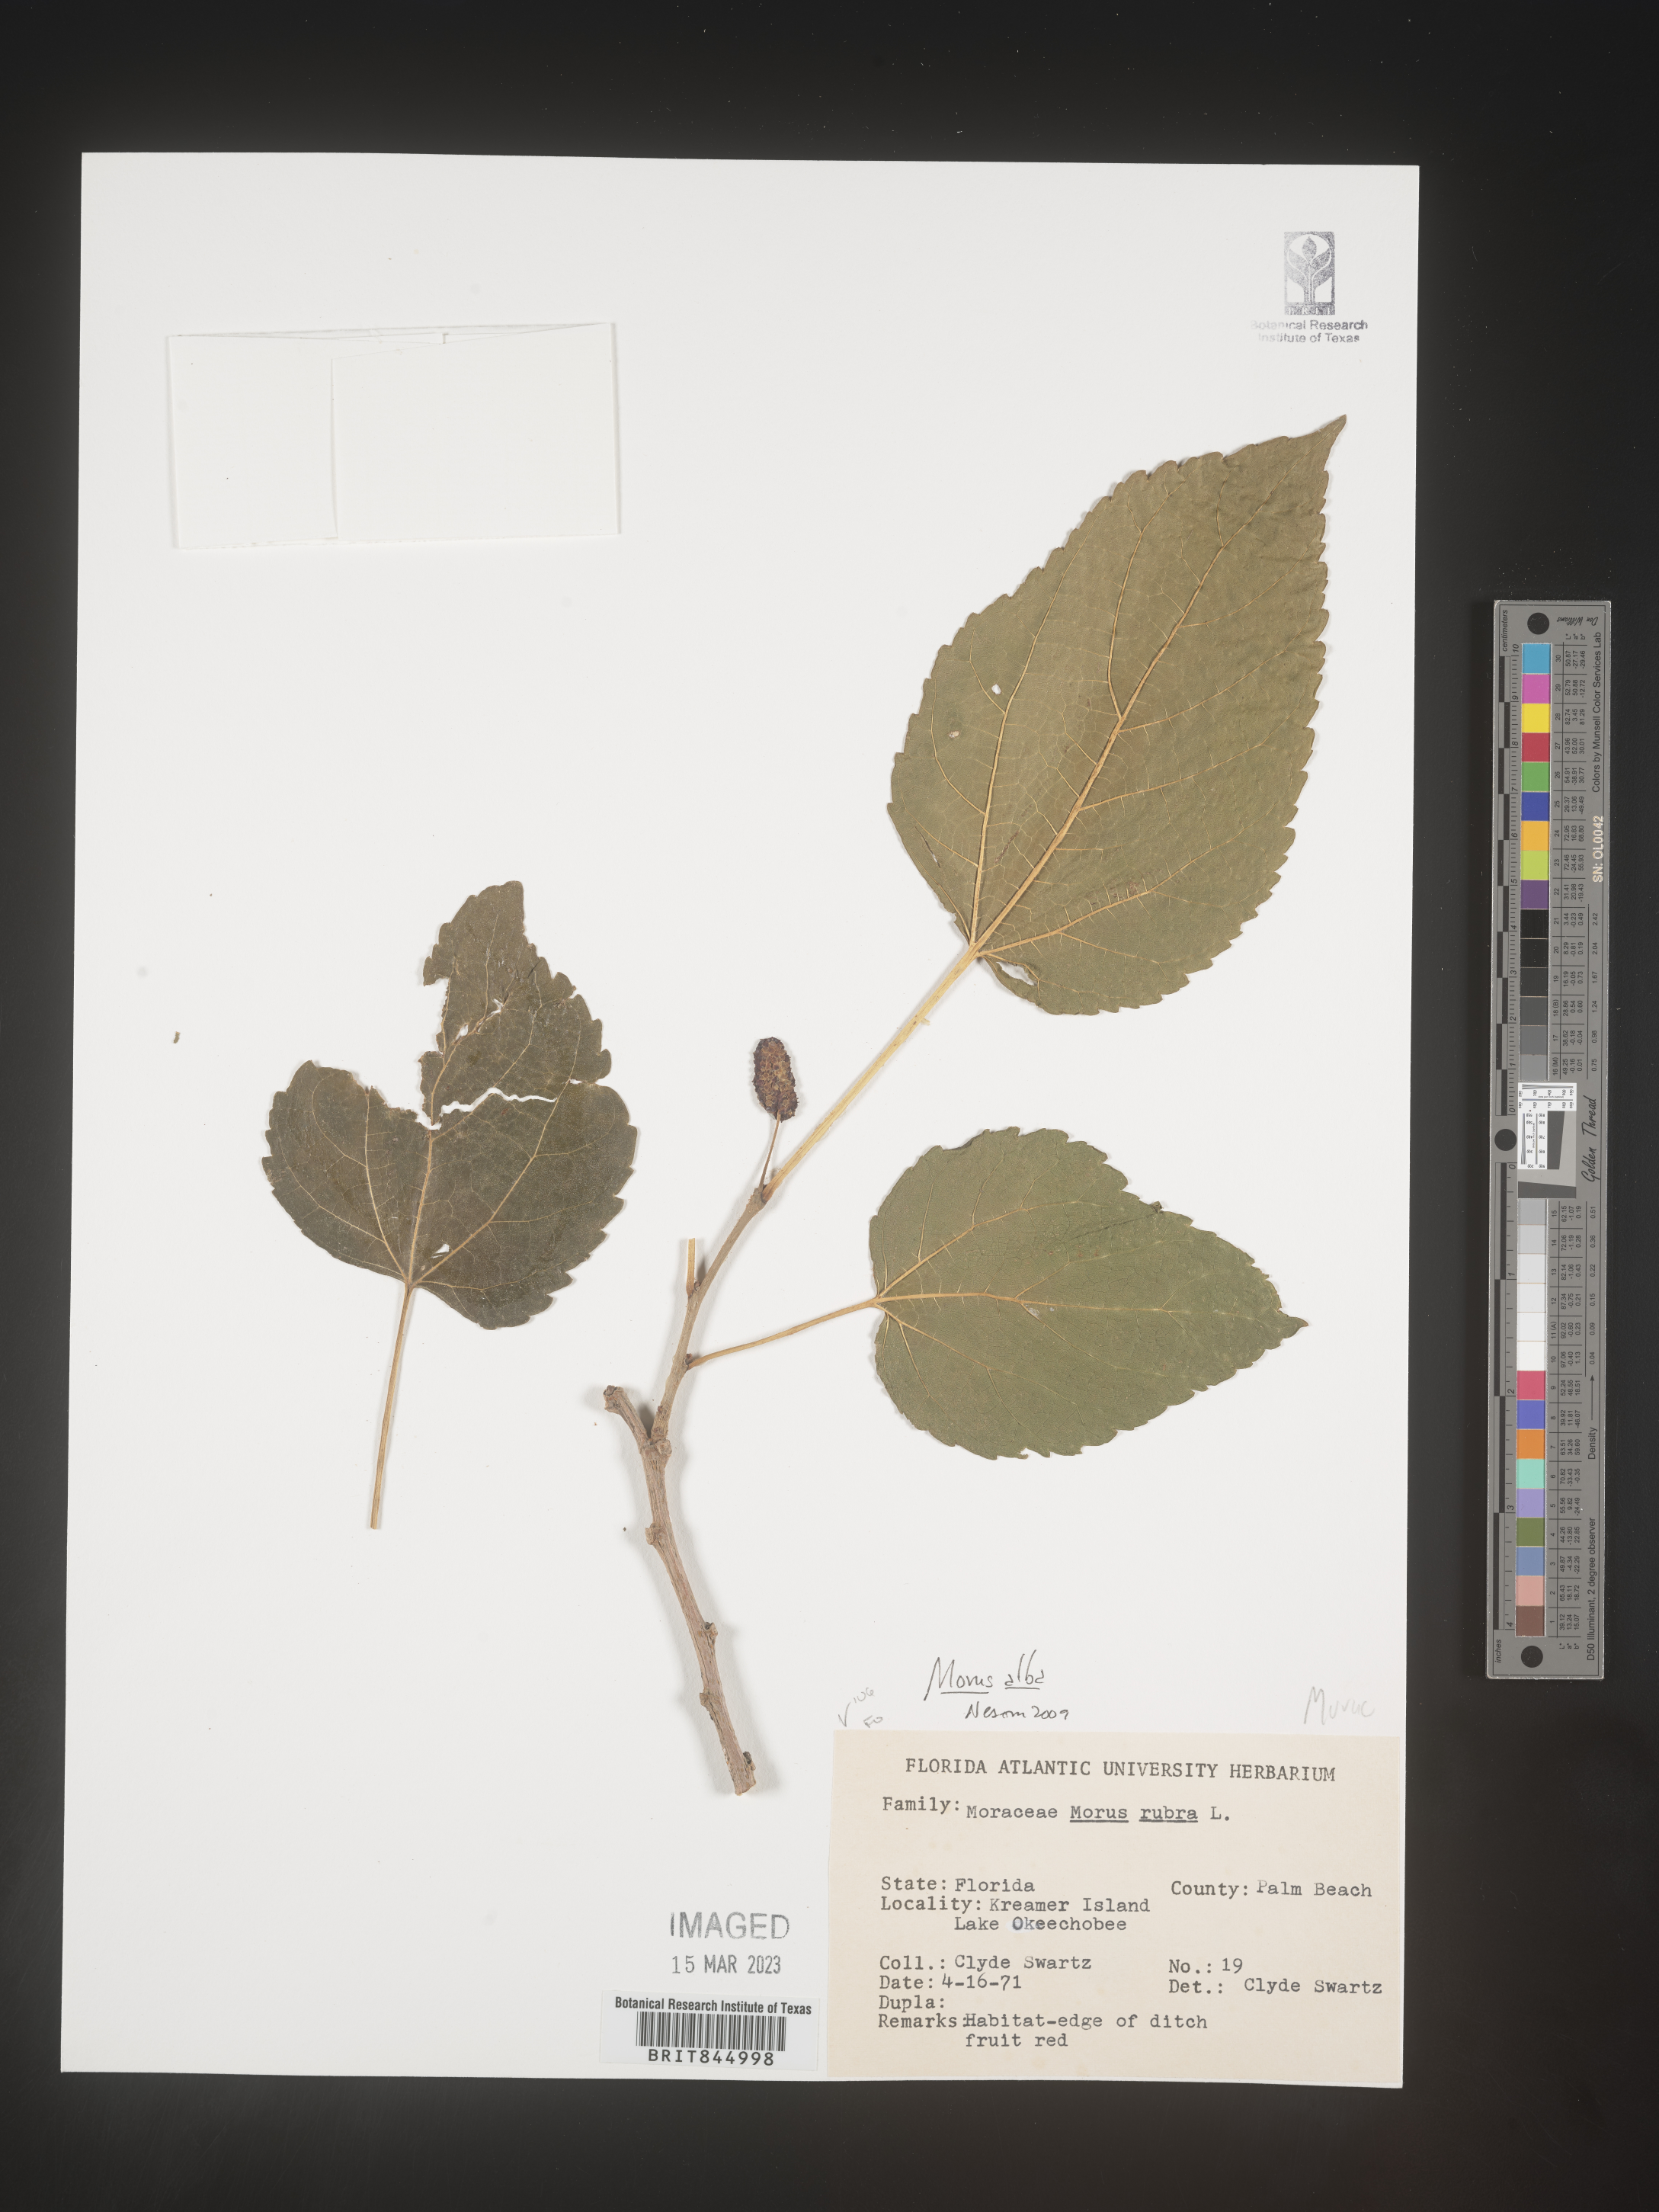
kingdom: Plantae
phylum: Tracheophyta
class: Magnoliopsida
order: Rosales
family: Moraceae
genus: Morus
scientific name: Morus alba
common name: White mulberry
